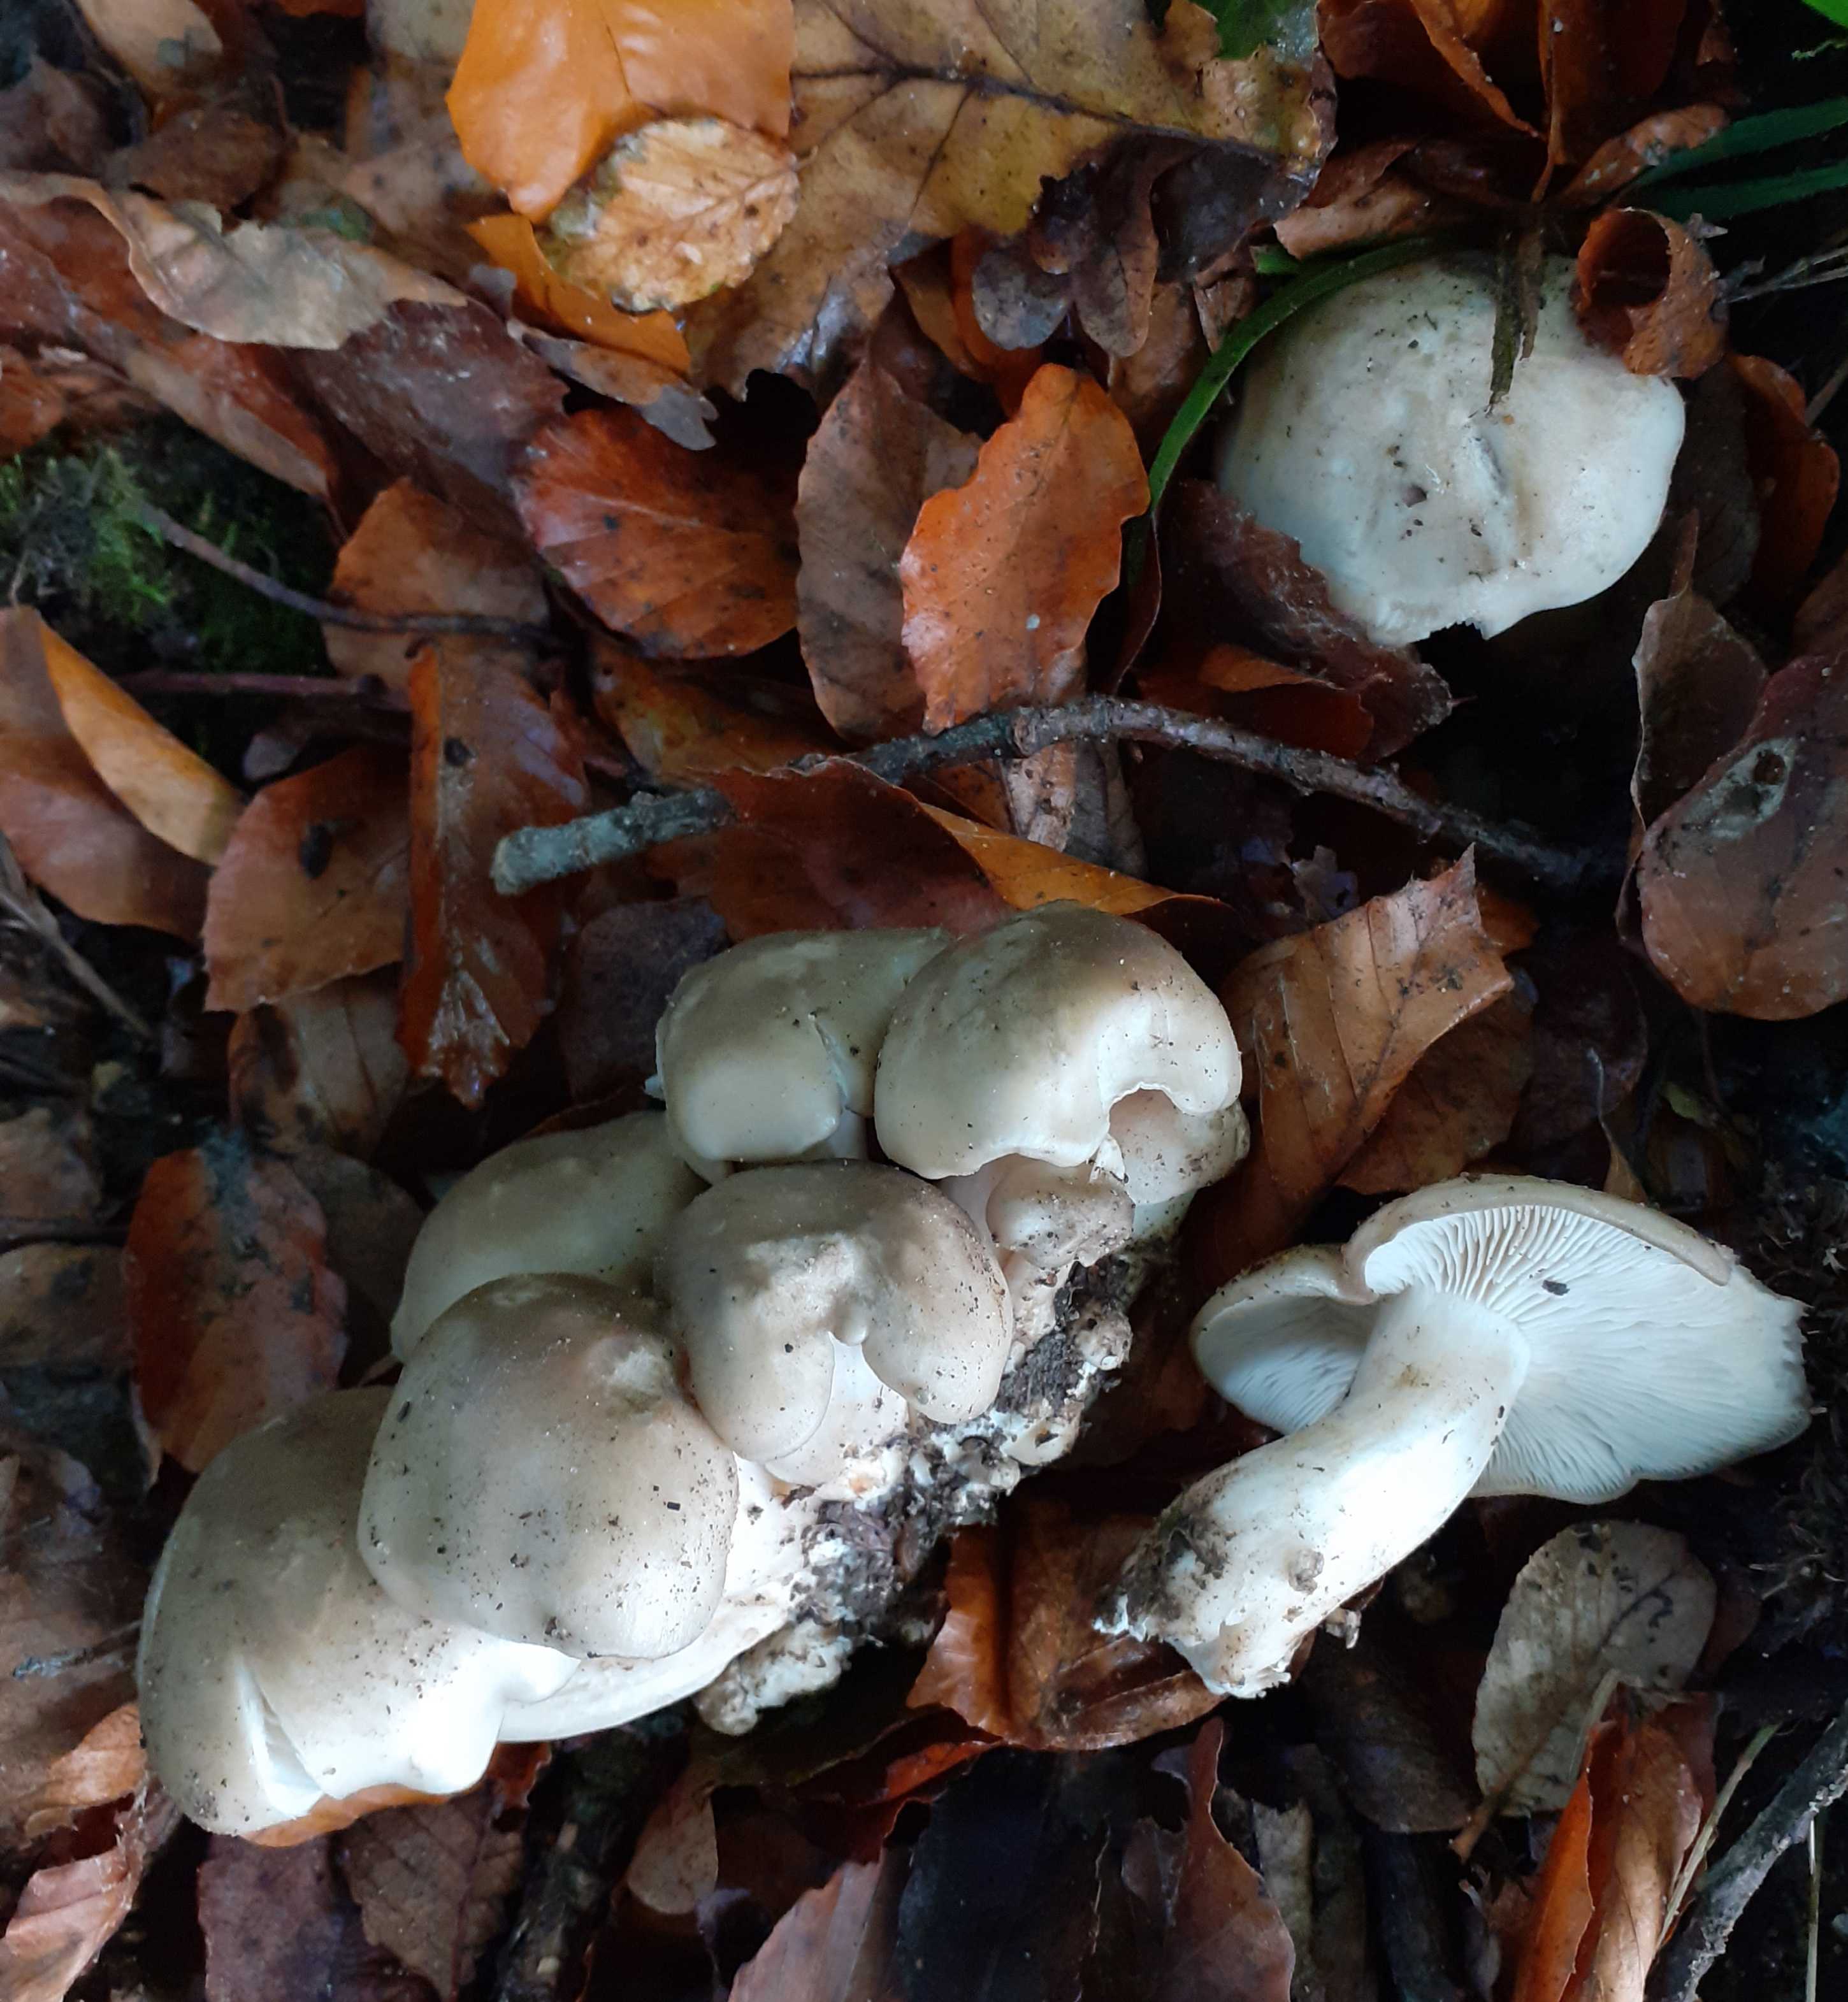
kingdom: Fungi
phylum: Basidiomycota
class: Agaricomycetes
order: Agaricales
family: Lyophyllaceae
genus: Lyophyllum
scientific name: Lyophyllum decastes
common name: røggrå gråblad
